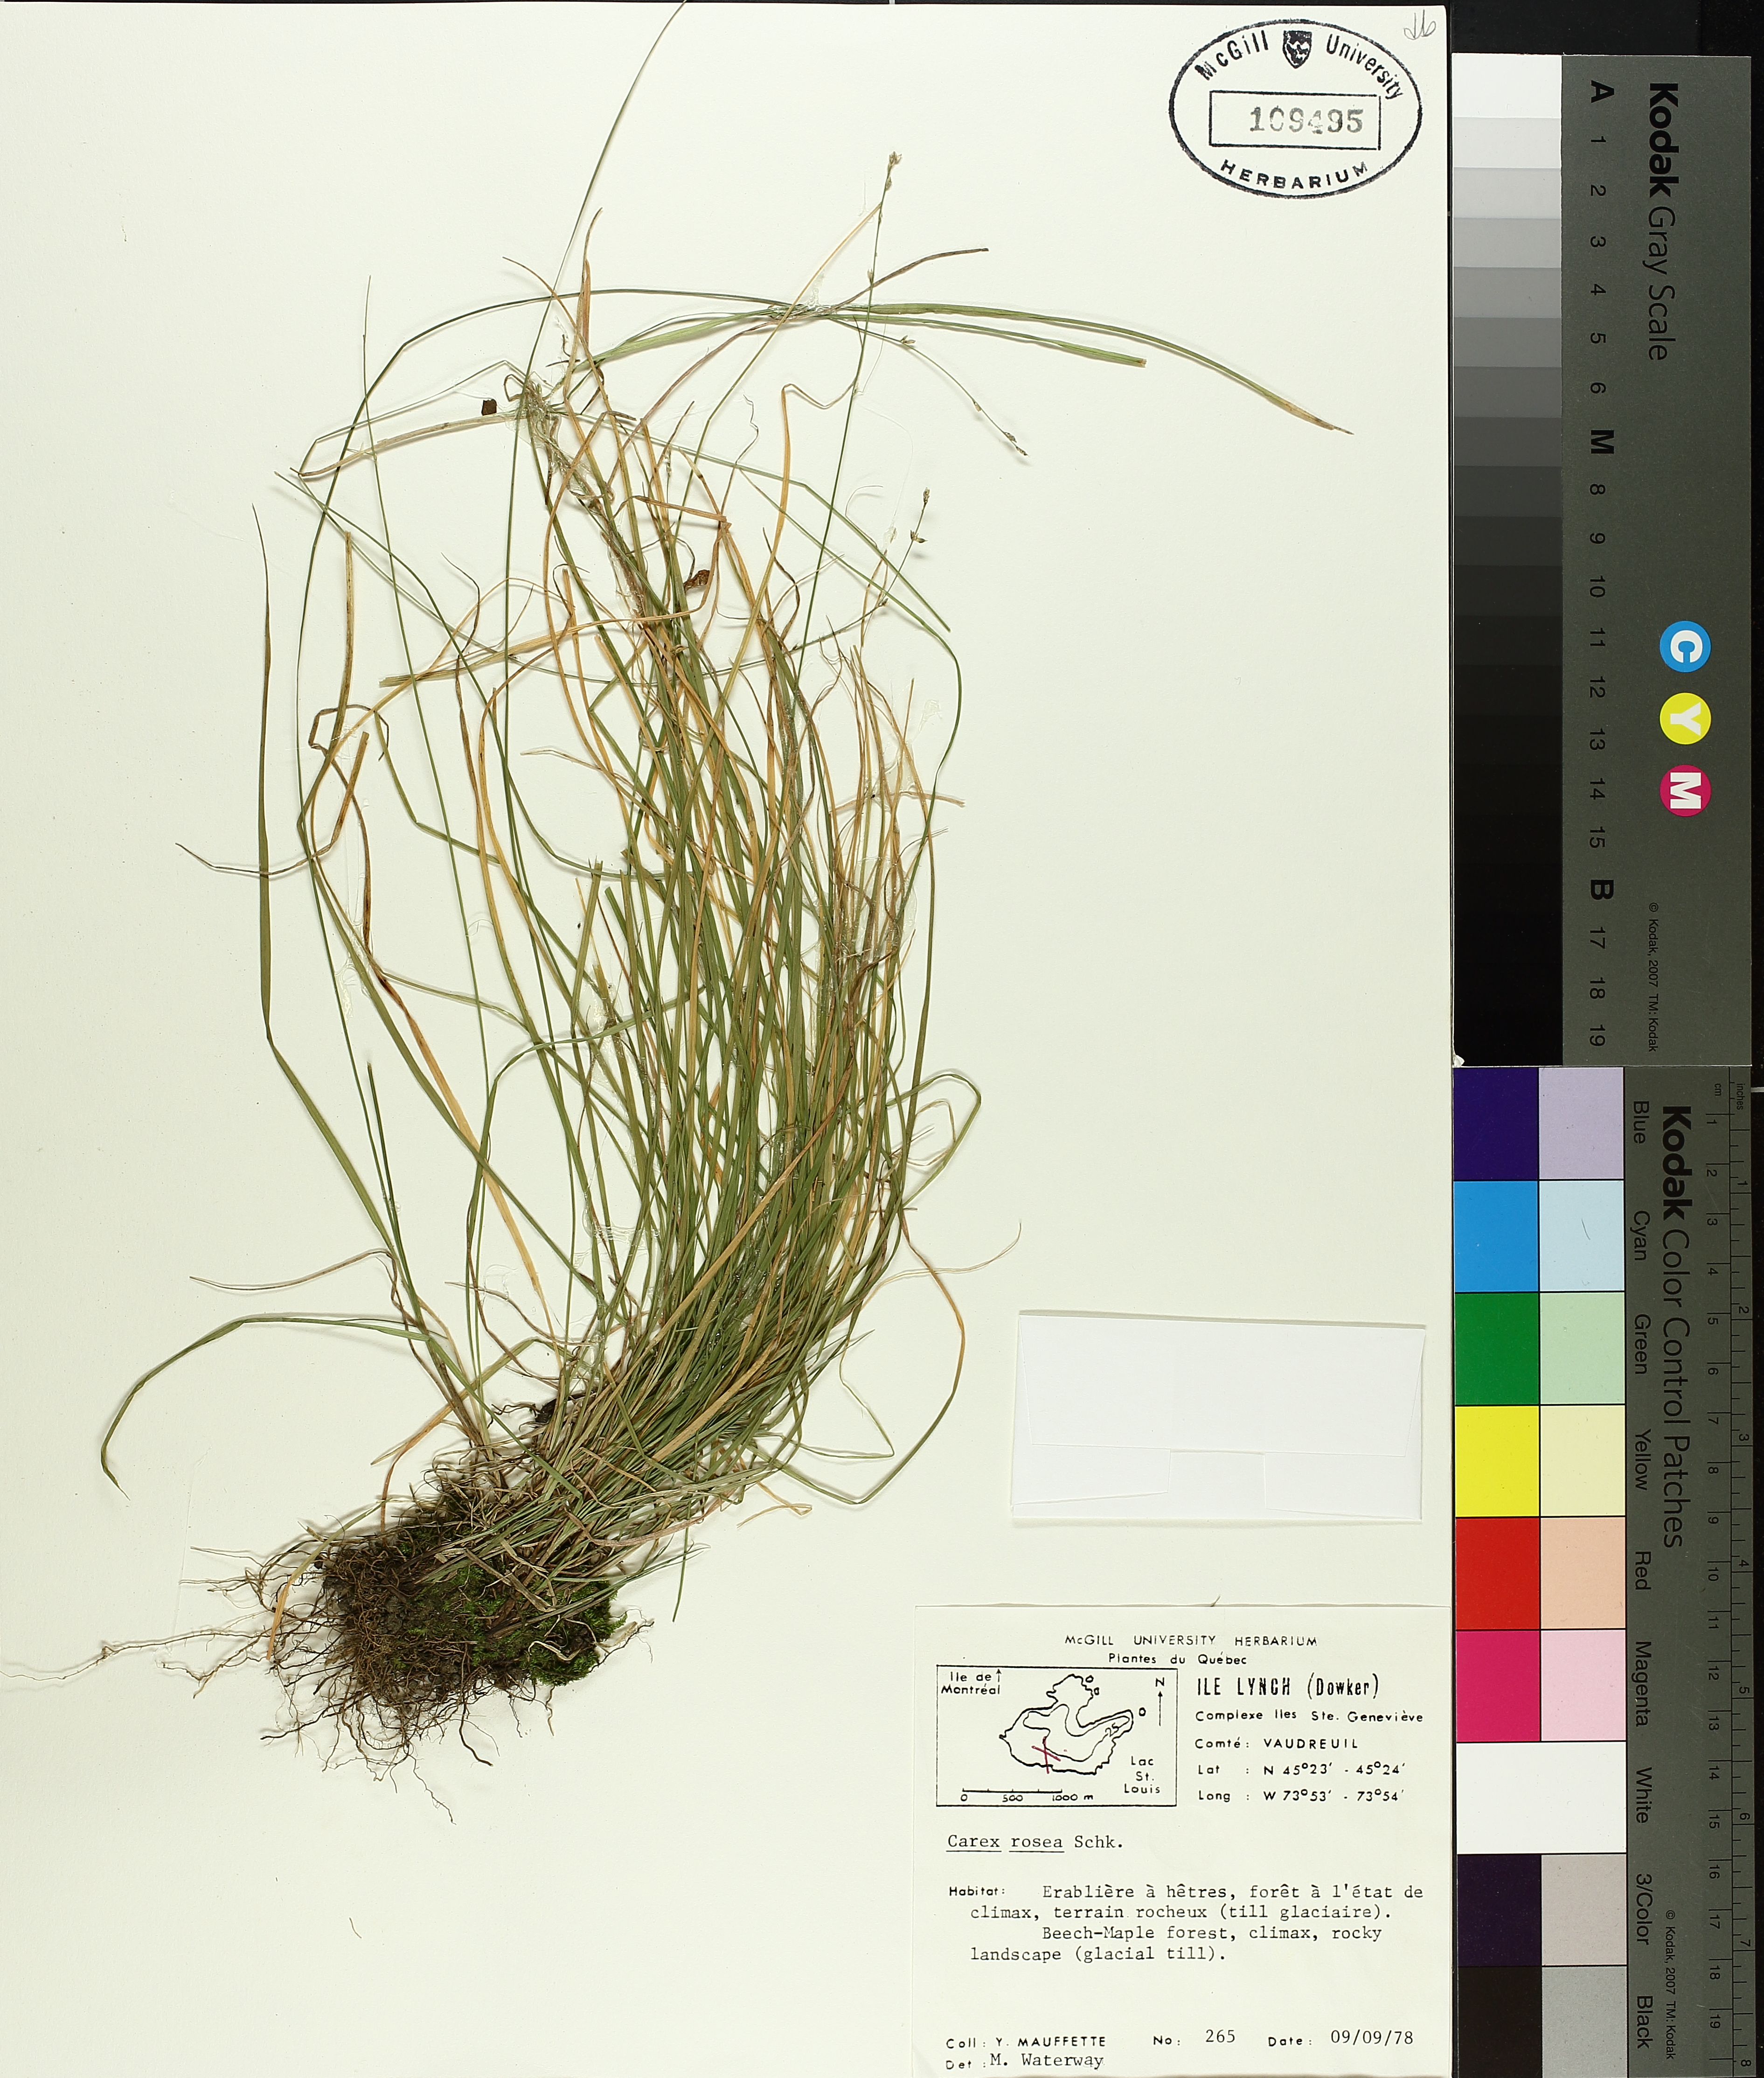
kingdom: Plantae
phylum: Tracheophyta
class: Liliopsida
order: Poales
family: Cyperaceae
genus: Carex
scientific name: Carex rosea
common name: Curly-styled wood sedge
